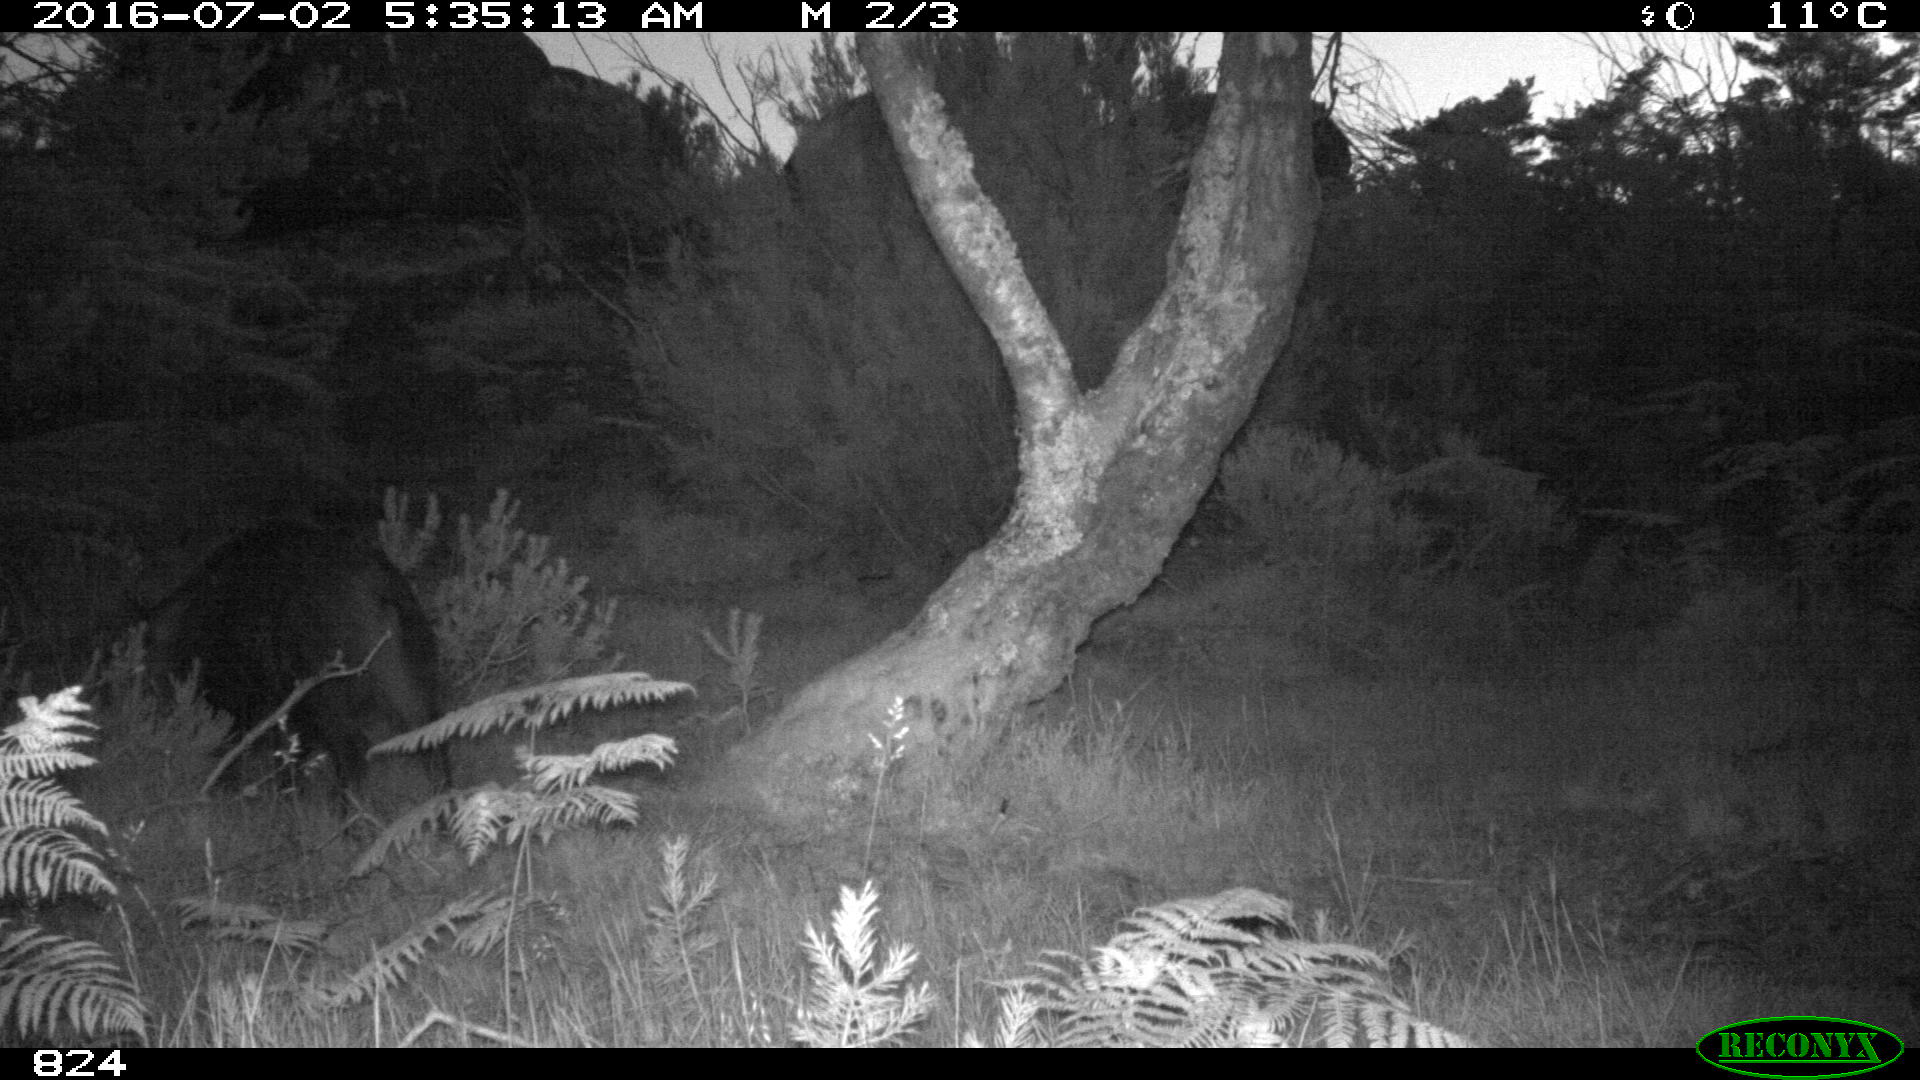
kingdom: Animalia
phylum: Chordata
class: Mammalia
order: Artiodactyla
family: Suidae
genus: Sus
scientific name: Sus scrofa
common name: Wild boar
